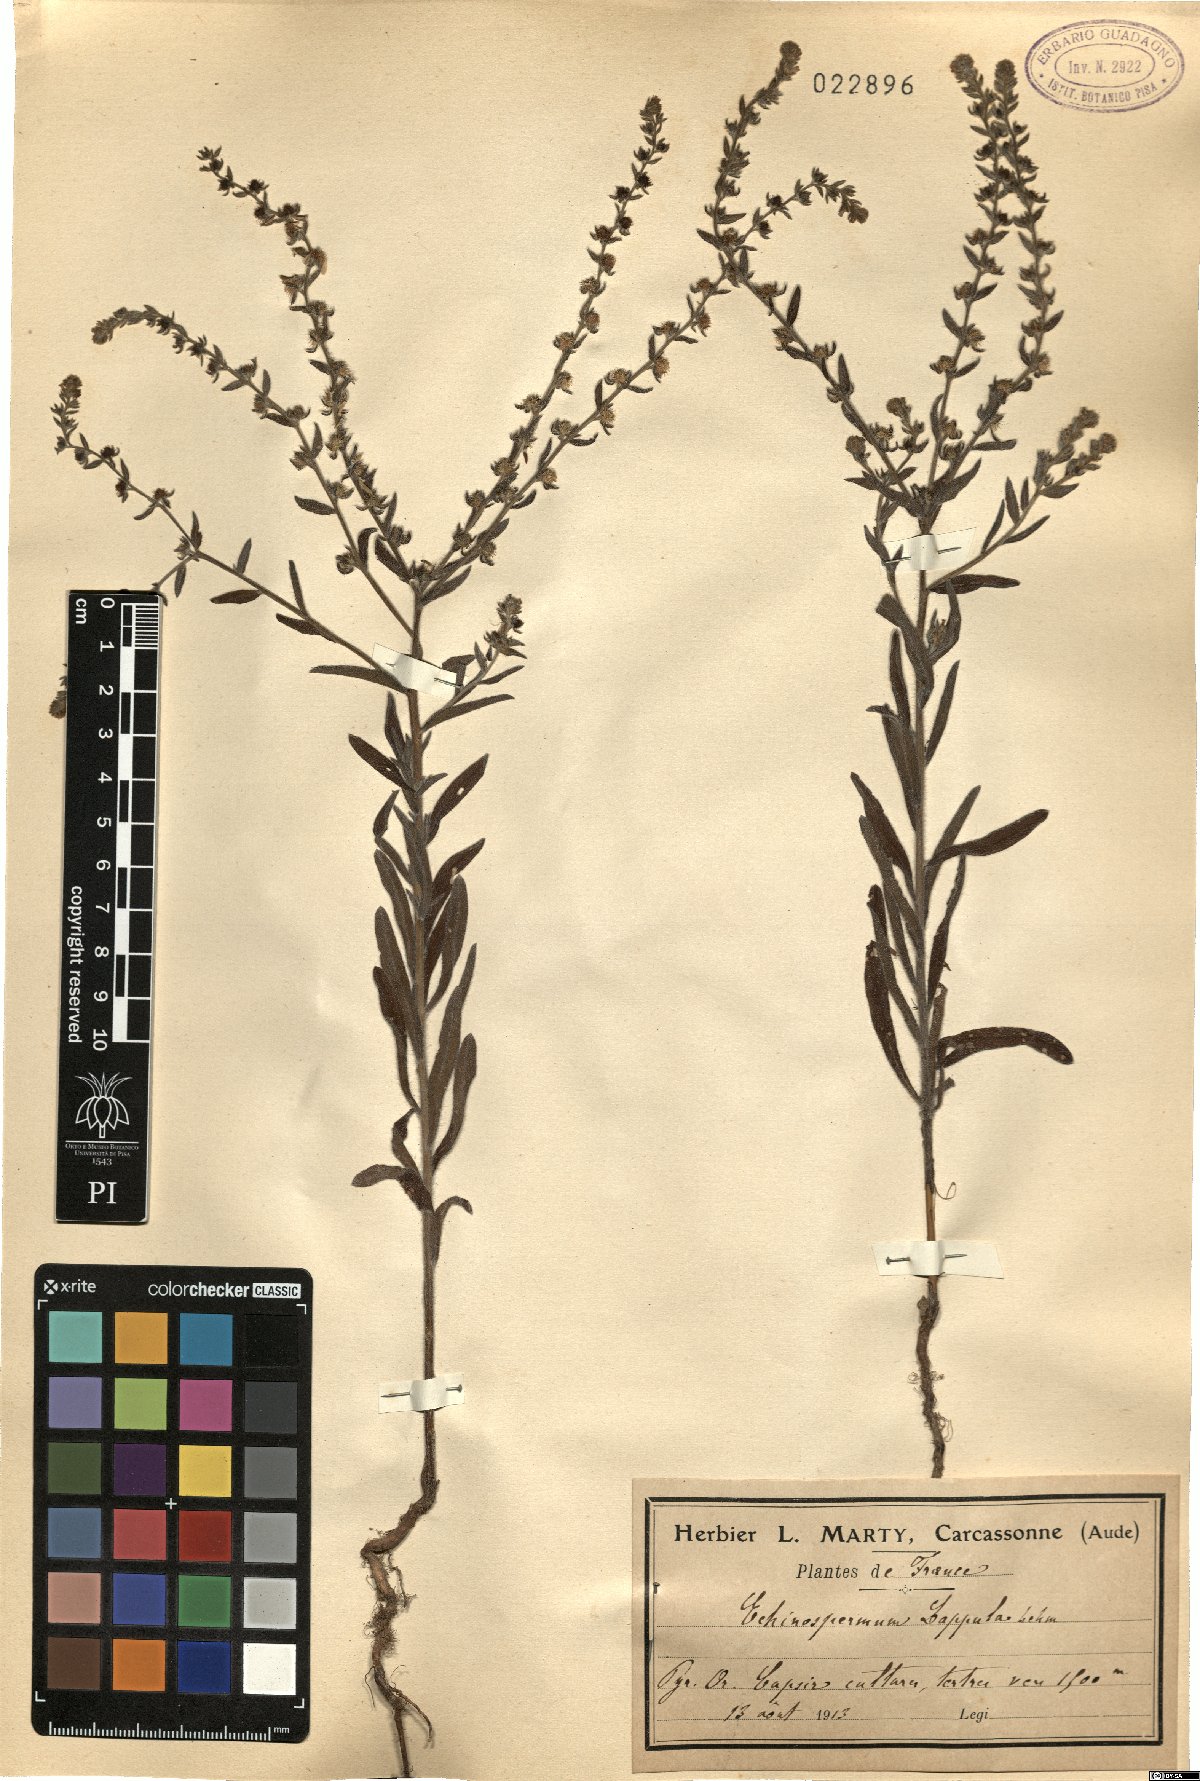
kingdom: Plantae
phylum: Tracheophyta
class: Magnoliopsida
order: Boraginales
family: Boraginaceae
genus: Lappula
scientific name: Lappula squarrosa
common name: European stickseed
